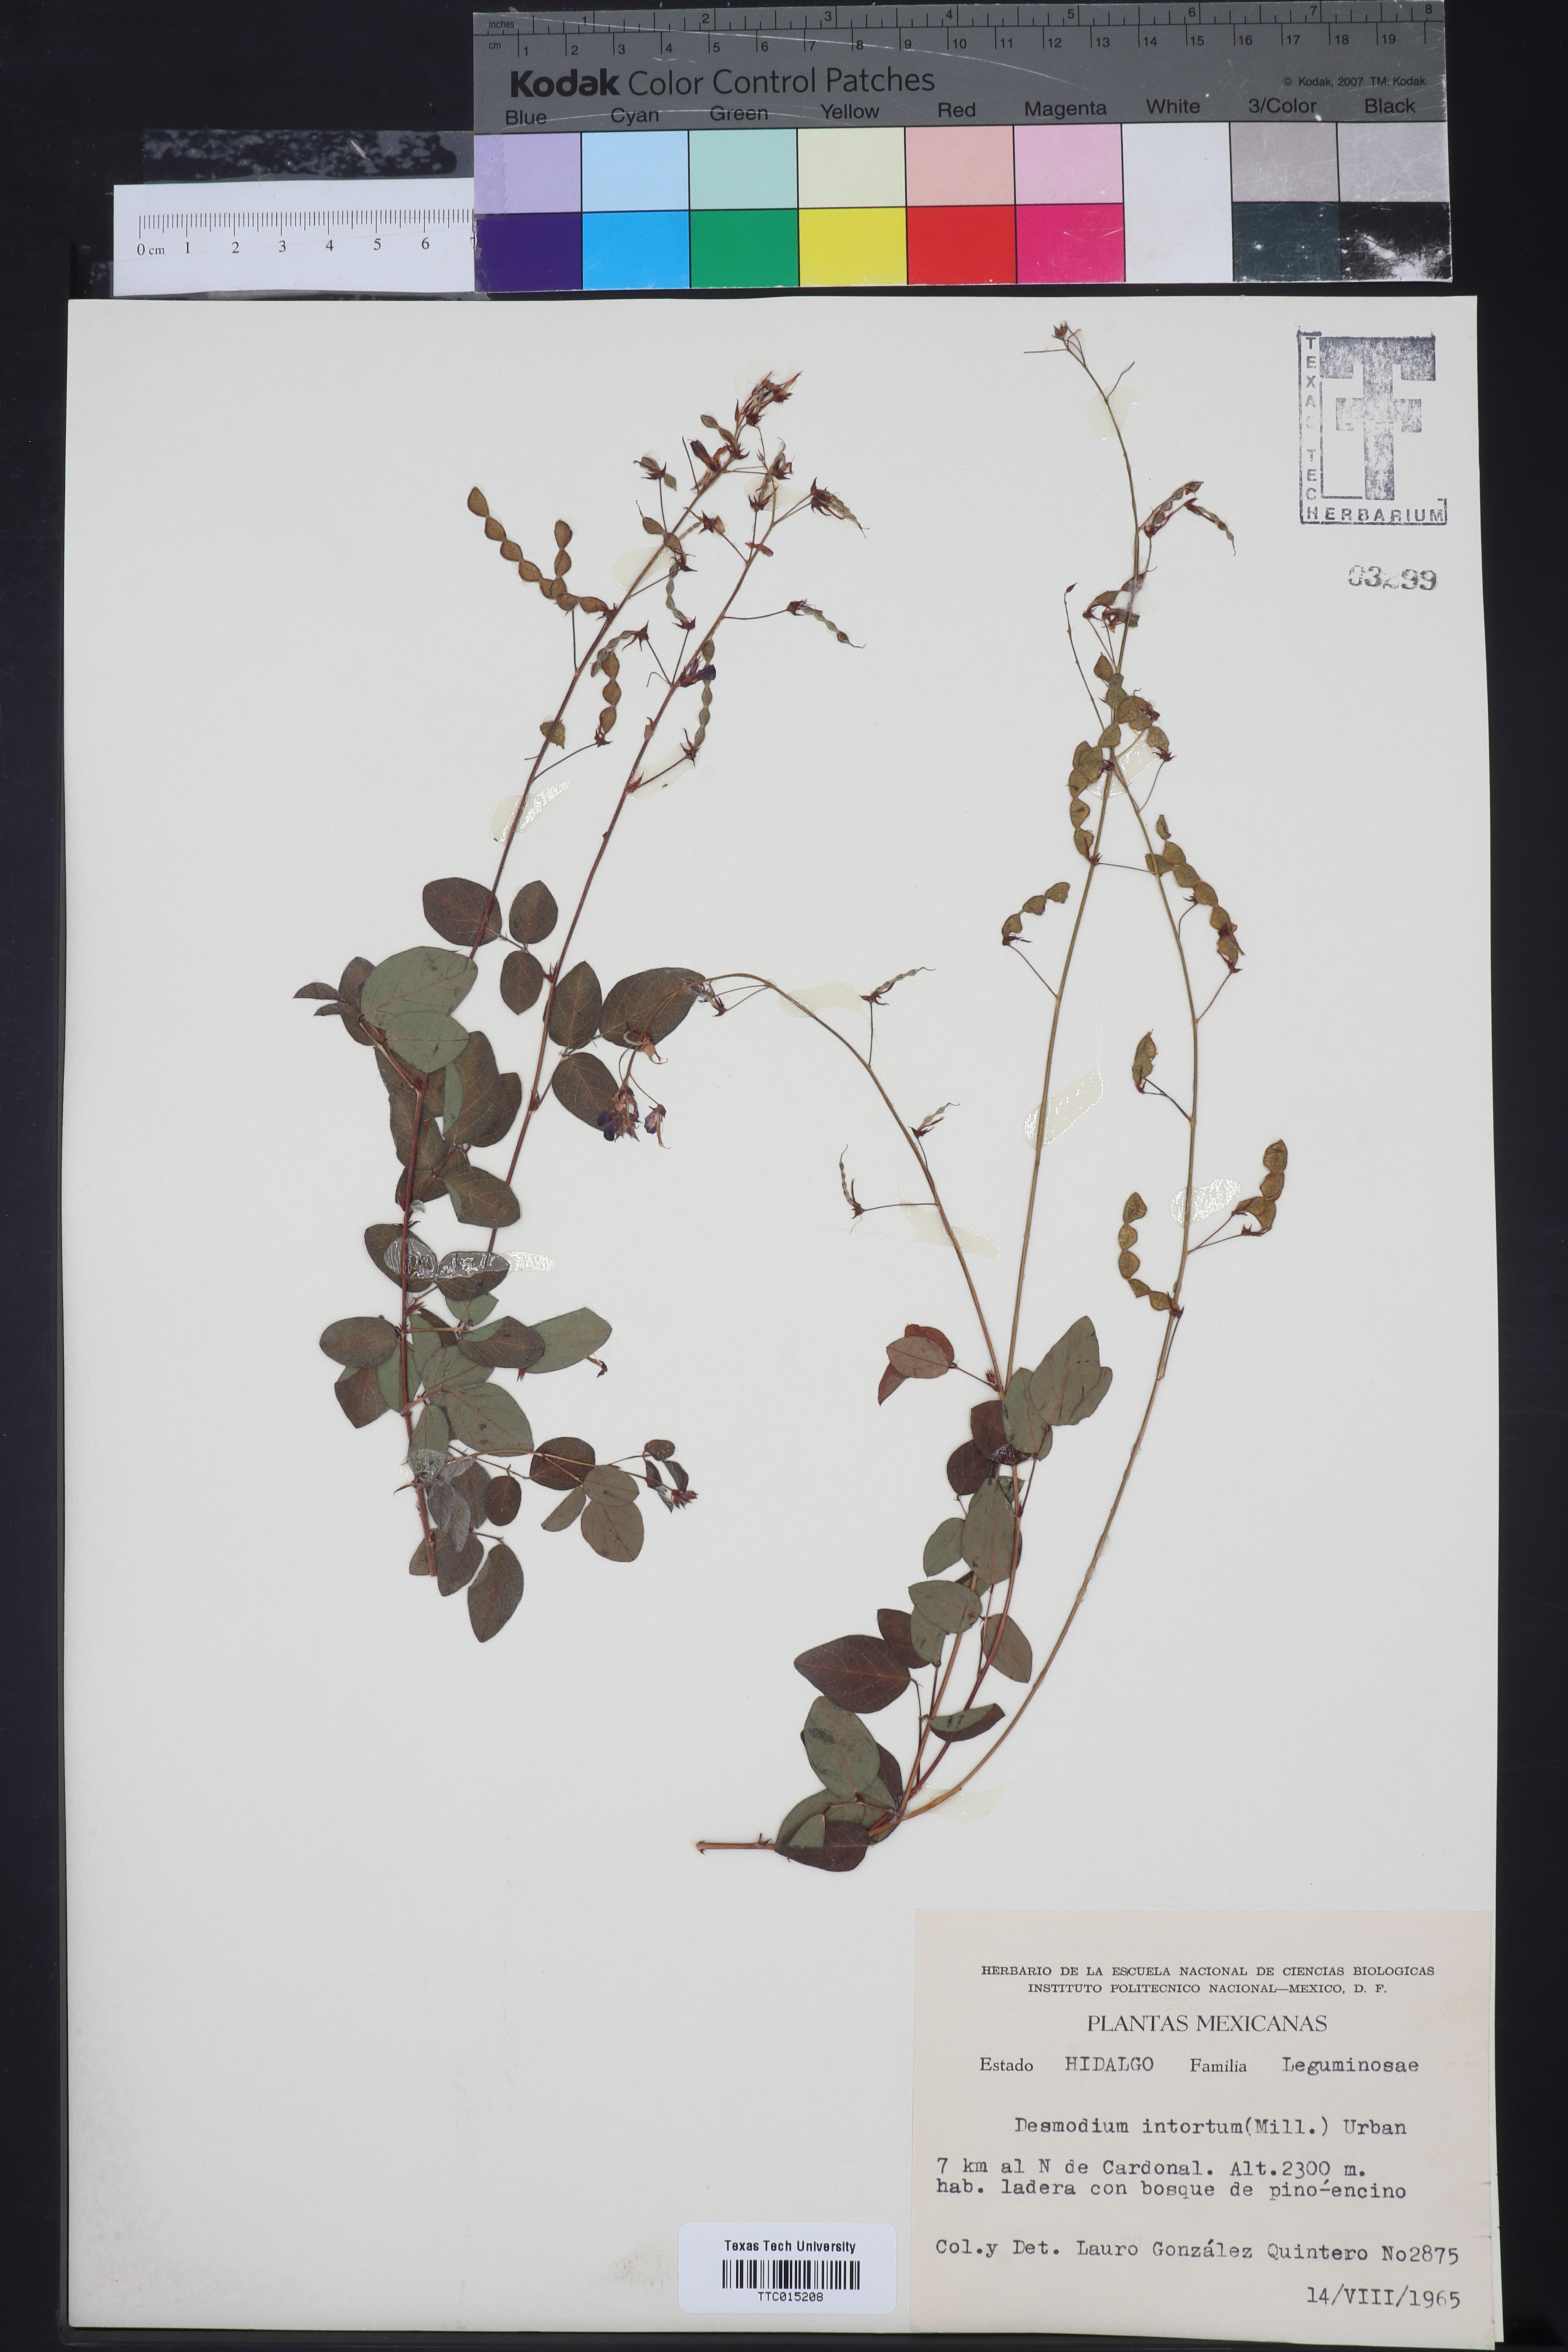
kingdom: Plantae
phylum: Tracheophyta
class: Magnoliopsida
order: Fabales
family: Fabaceae
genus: Desmodium
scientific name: Desmodium intortum
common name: Greenleaf ticktrefoil
